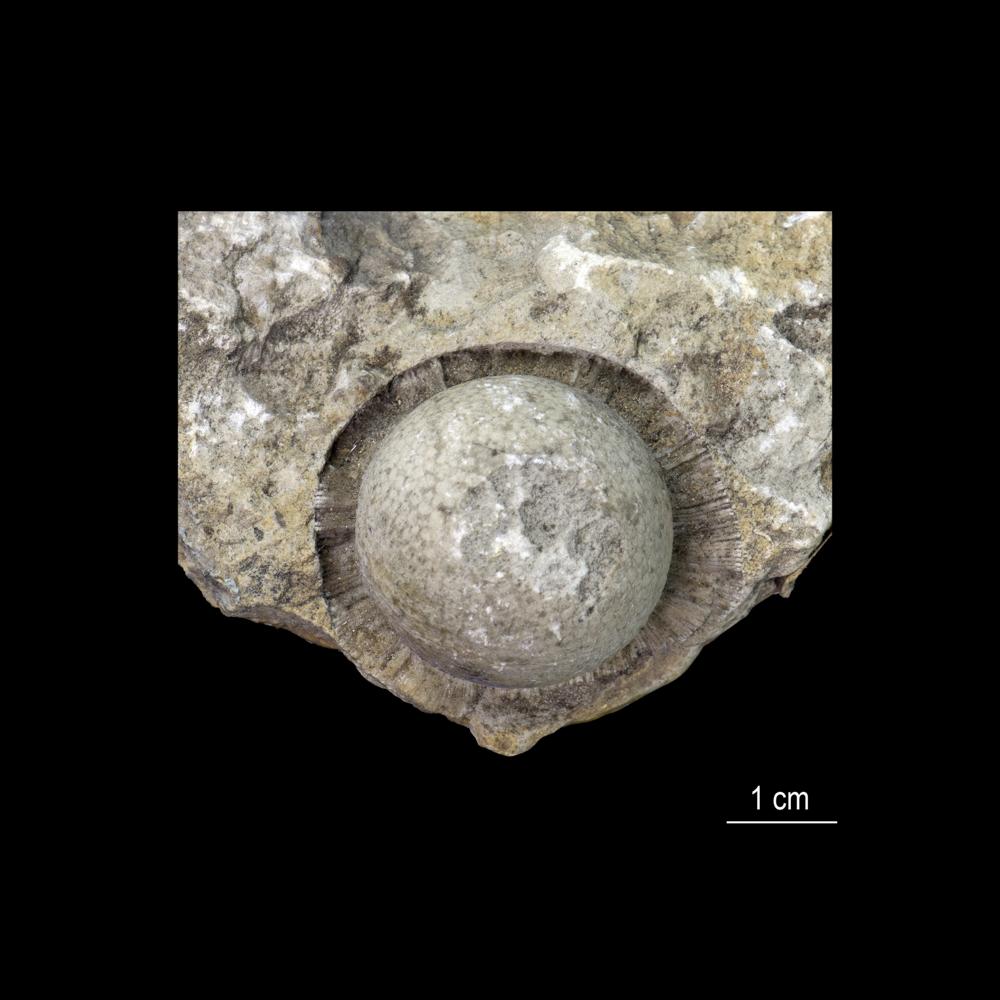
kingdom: Animalia
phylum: Echinodermata
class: Crinoidea
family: Cyclocrinidae
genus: Cyclocrinus
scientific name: Cyclocrinus
